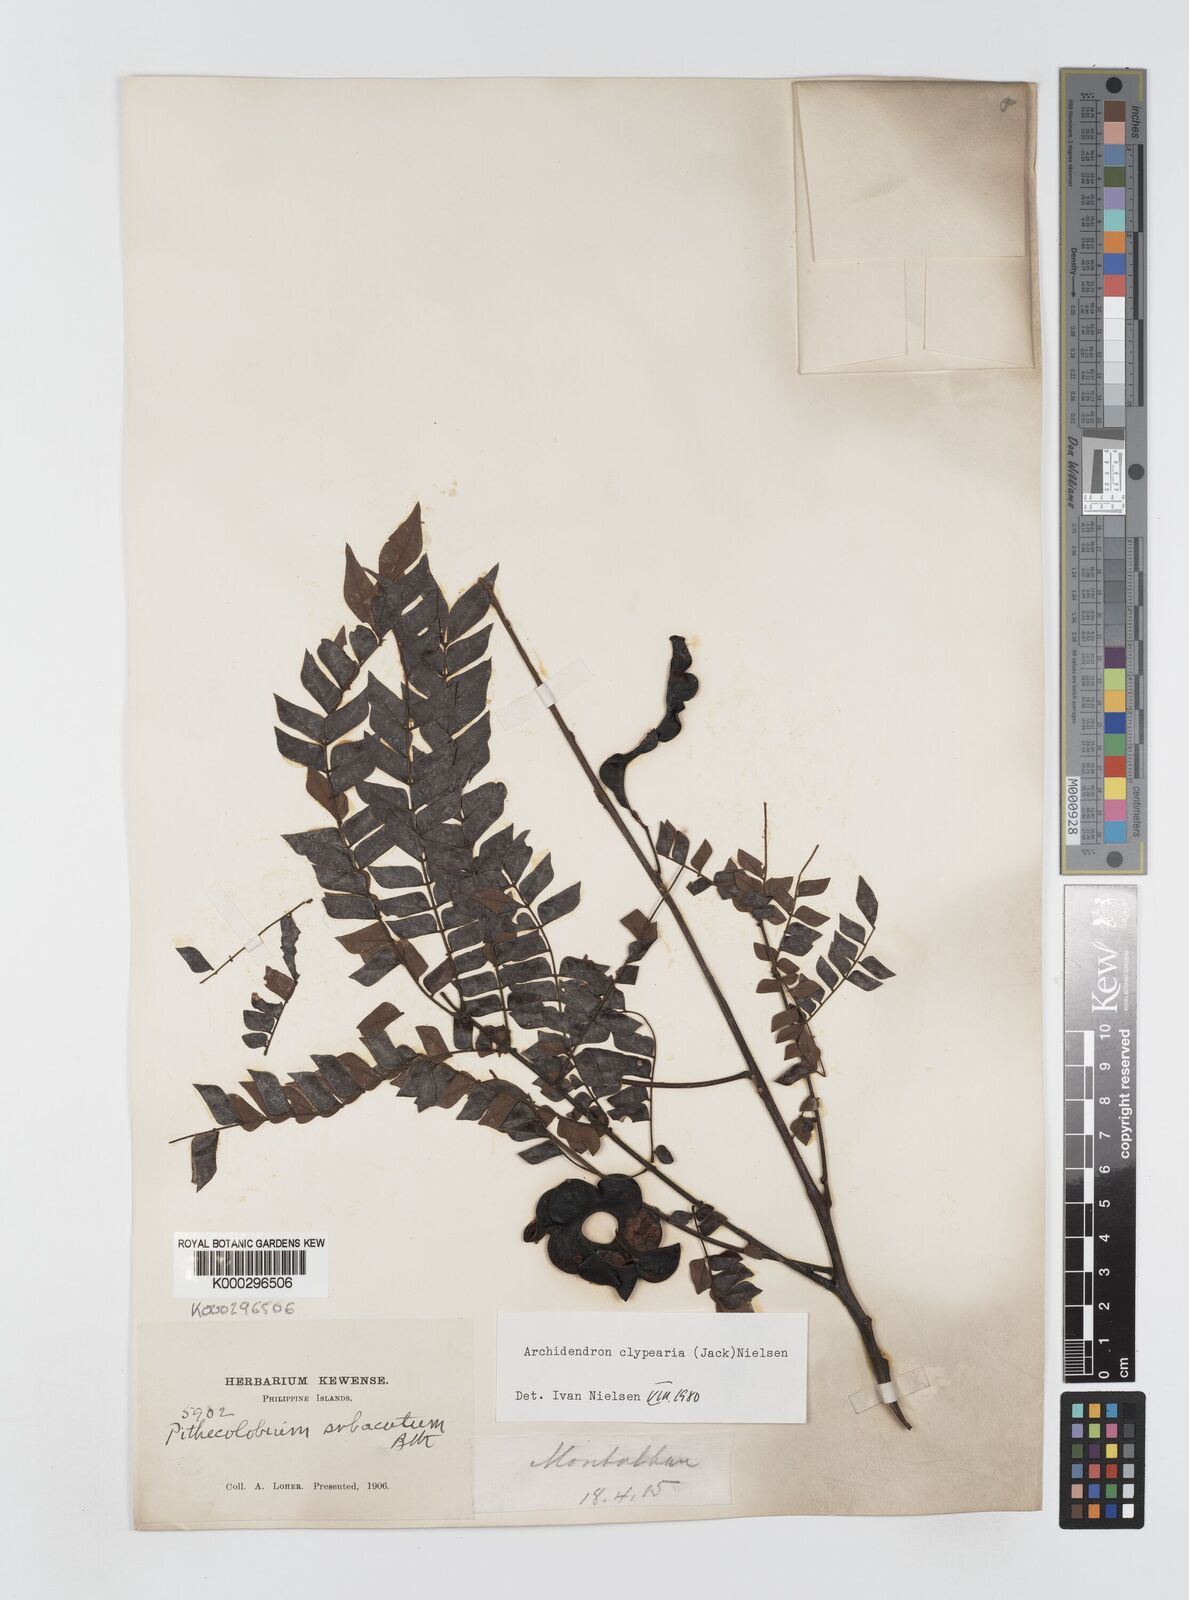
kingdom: Plantae
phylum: Tracheophyta
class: Magnoliopsida
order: Fabales
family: Fabaceae
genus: Archidendron
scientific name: Archidendron clypearia
